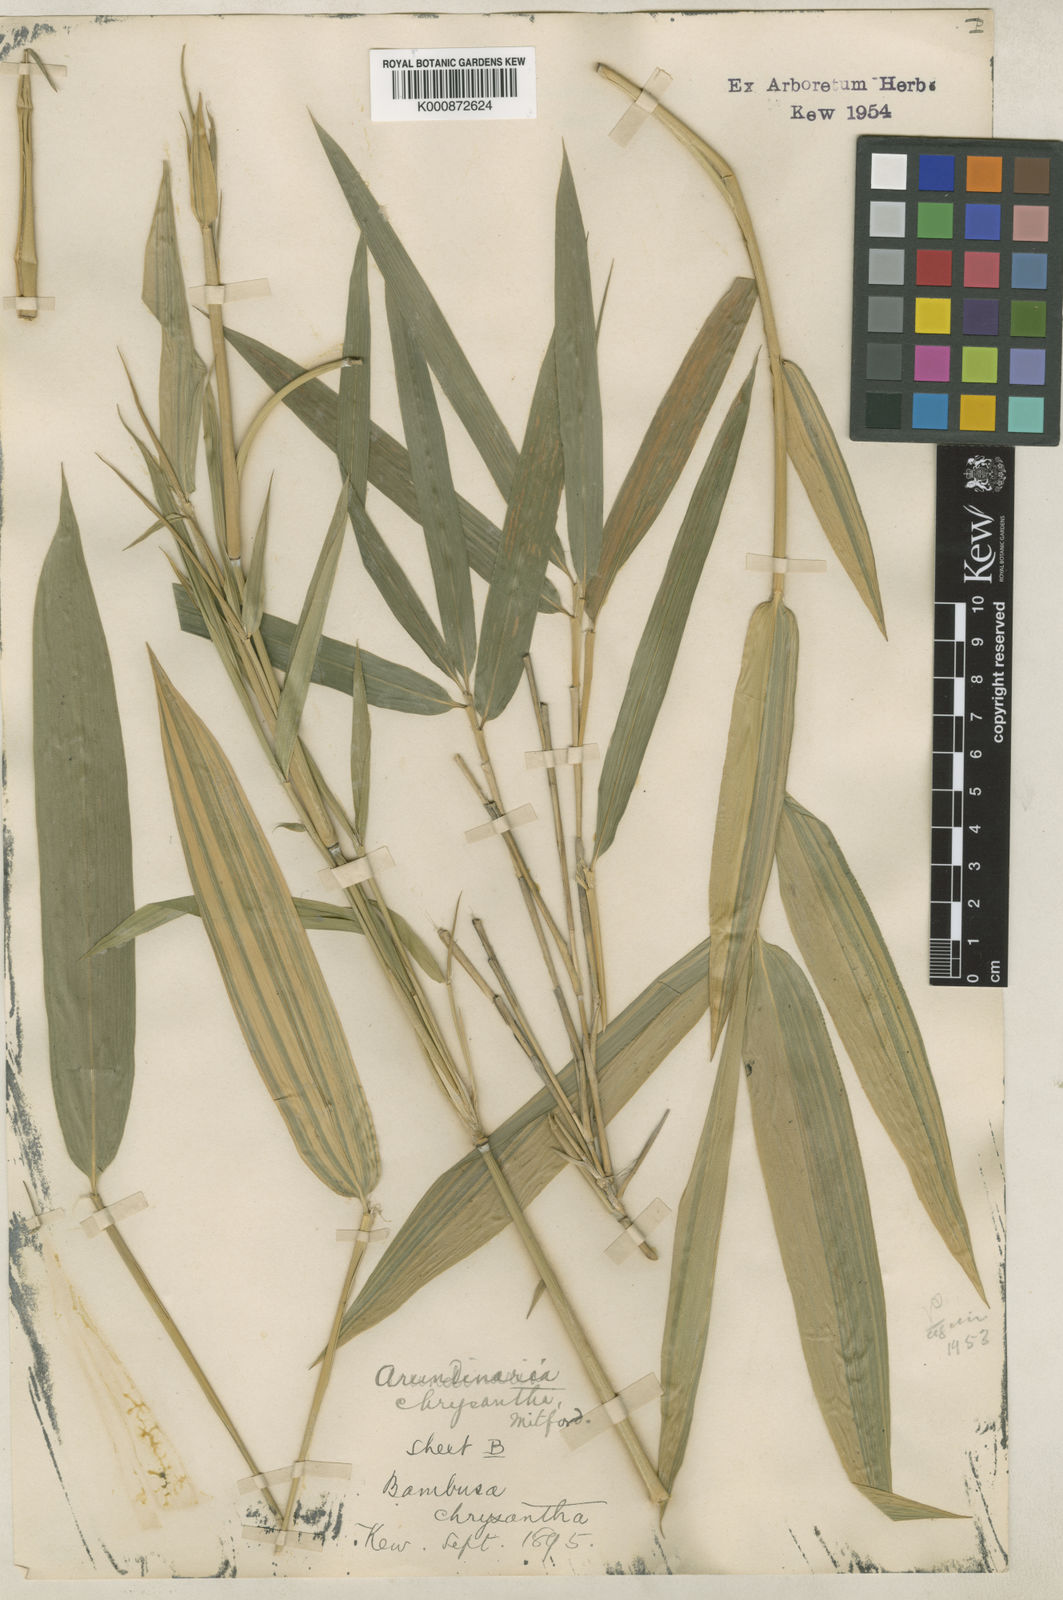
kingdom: Plantae
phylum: Tracheophyta
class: Liliopsida
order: Poales
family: Poaceae
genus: Pleioblastus
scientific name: Pleioblastus argenteostriatus
